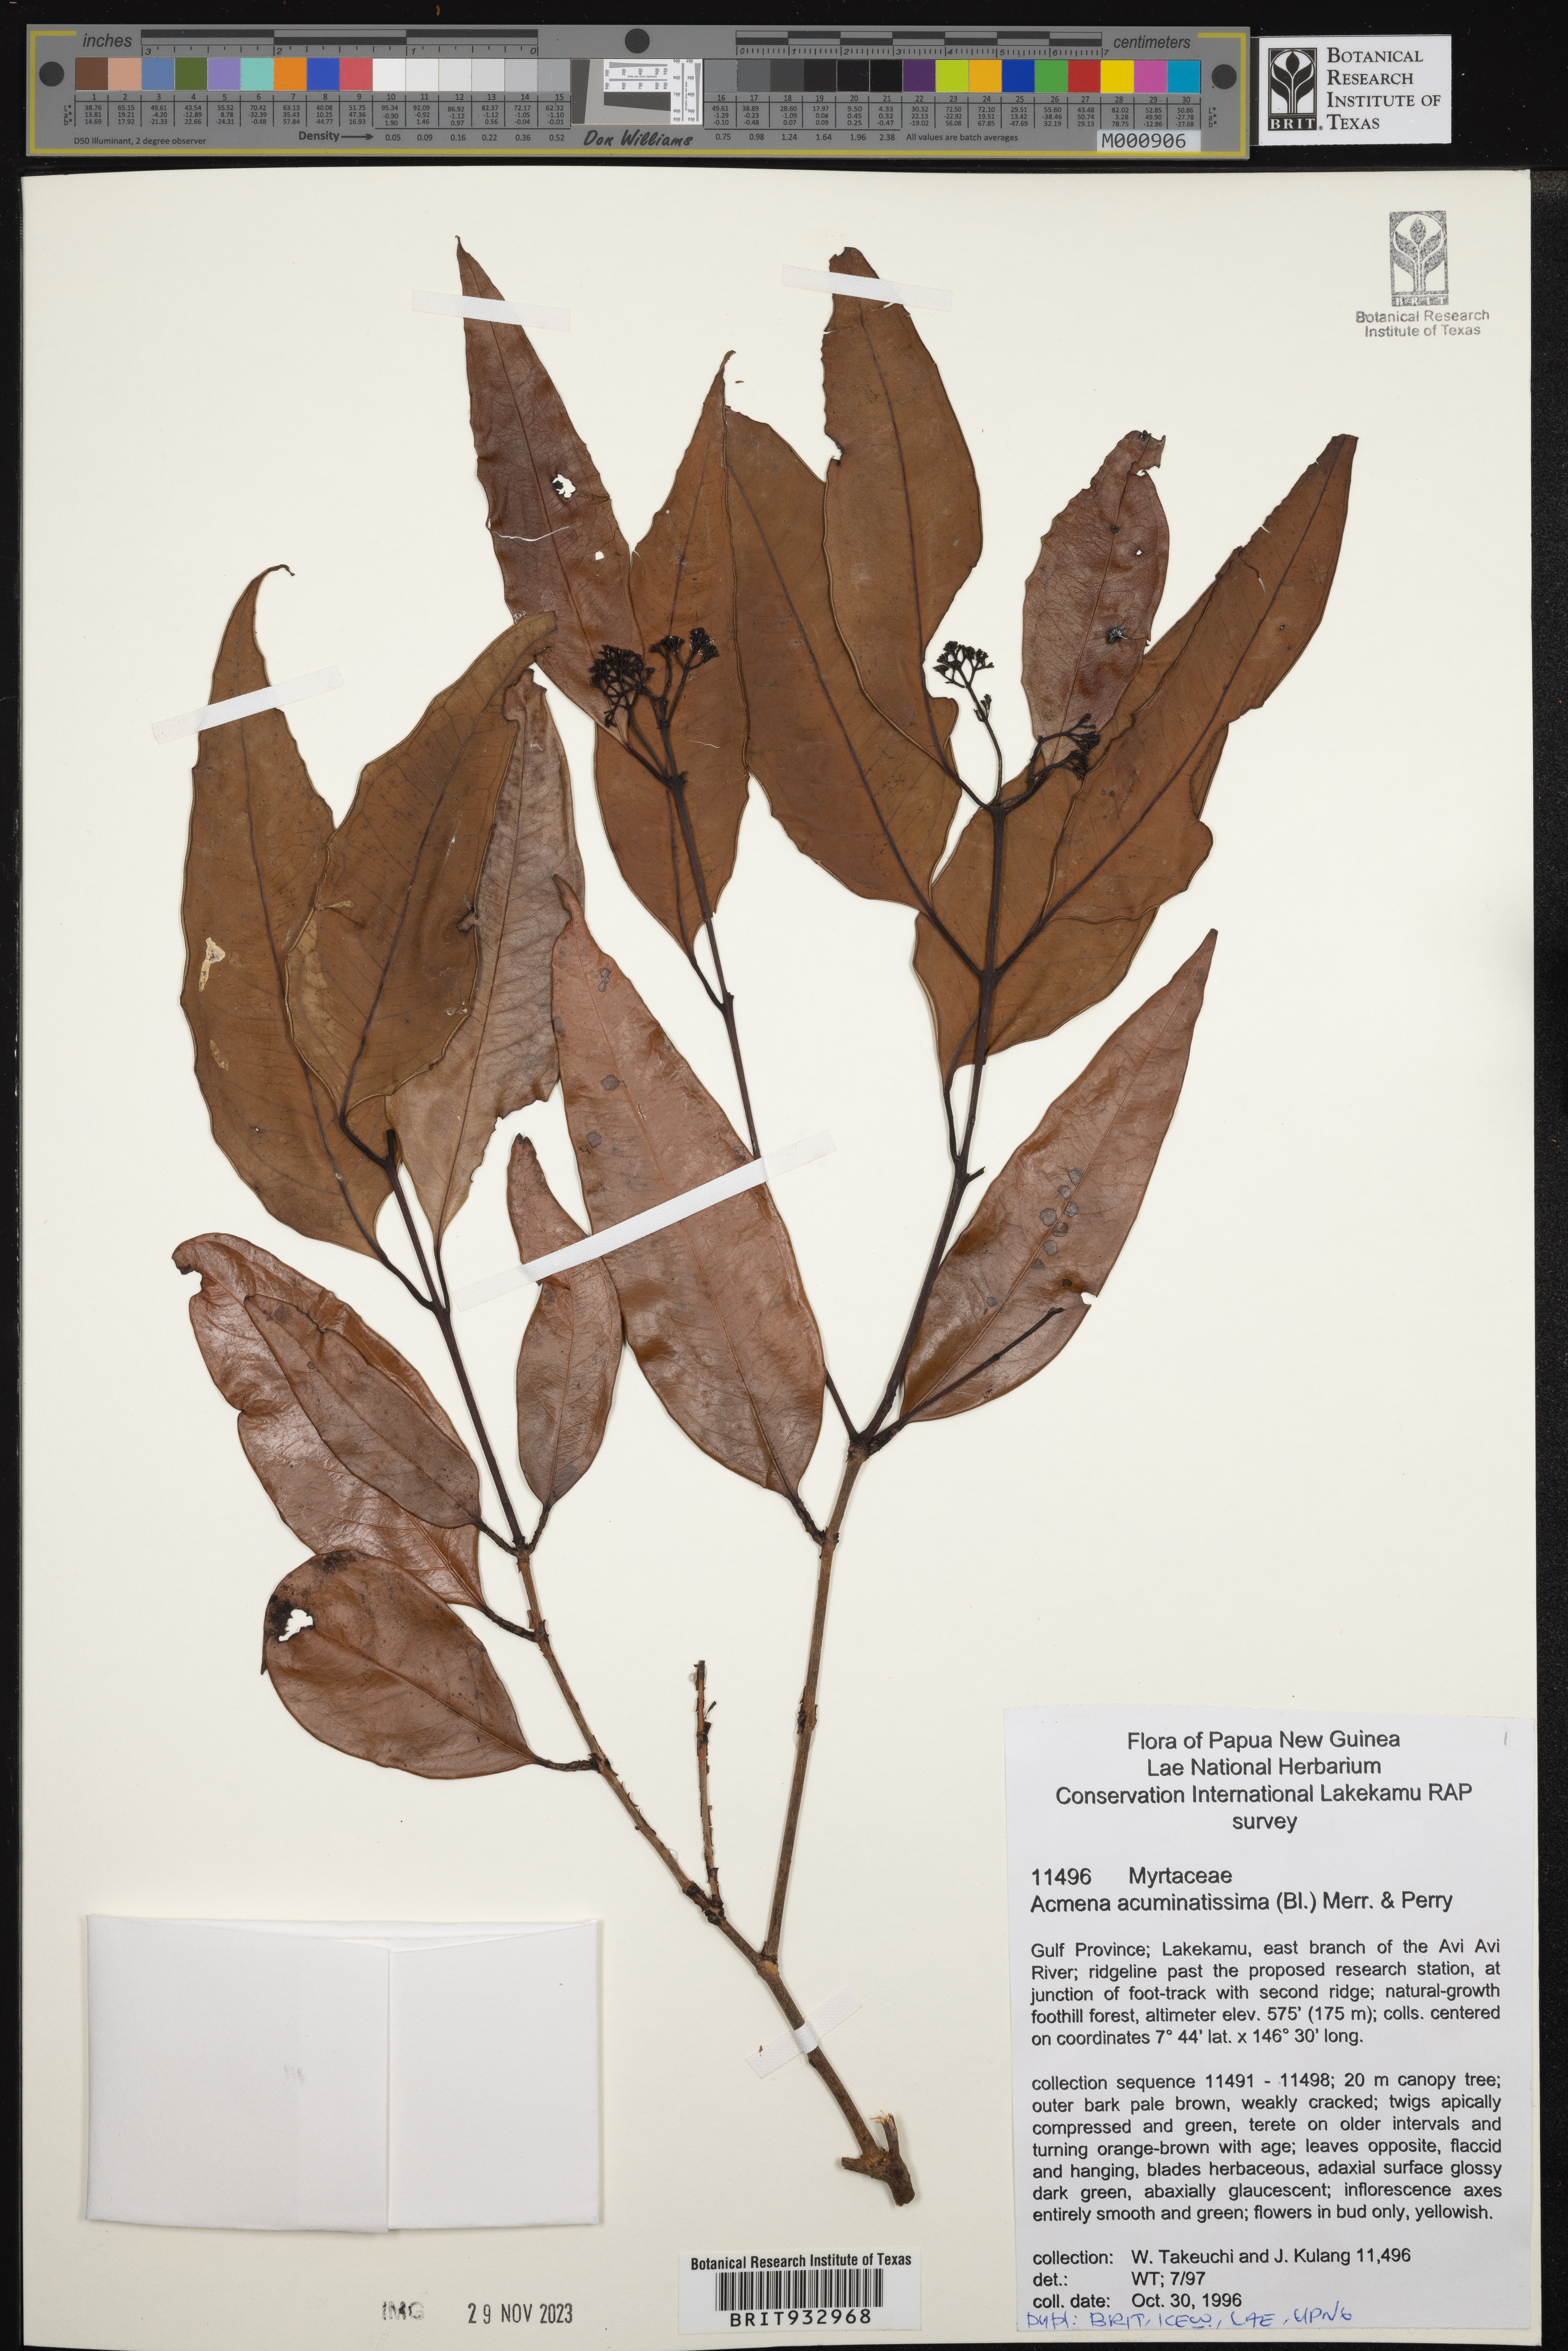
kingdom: Plantae
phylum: Tracheophyta
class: Magnoliopsida
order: Myrtales
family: Myrtaceae
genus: Syzygium
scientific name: Syzygium
